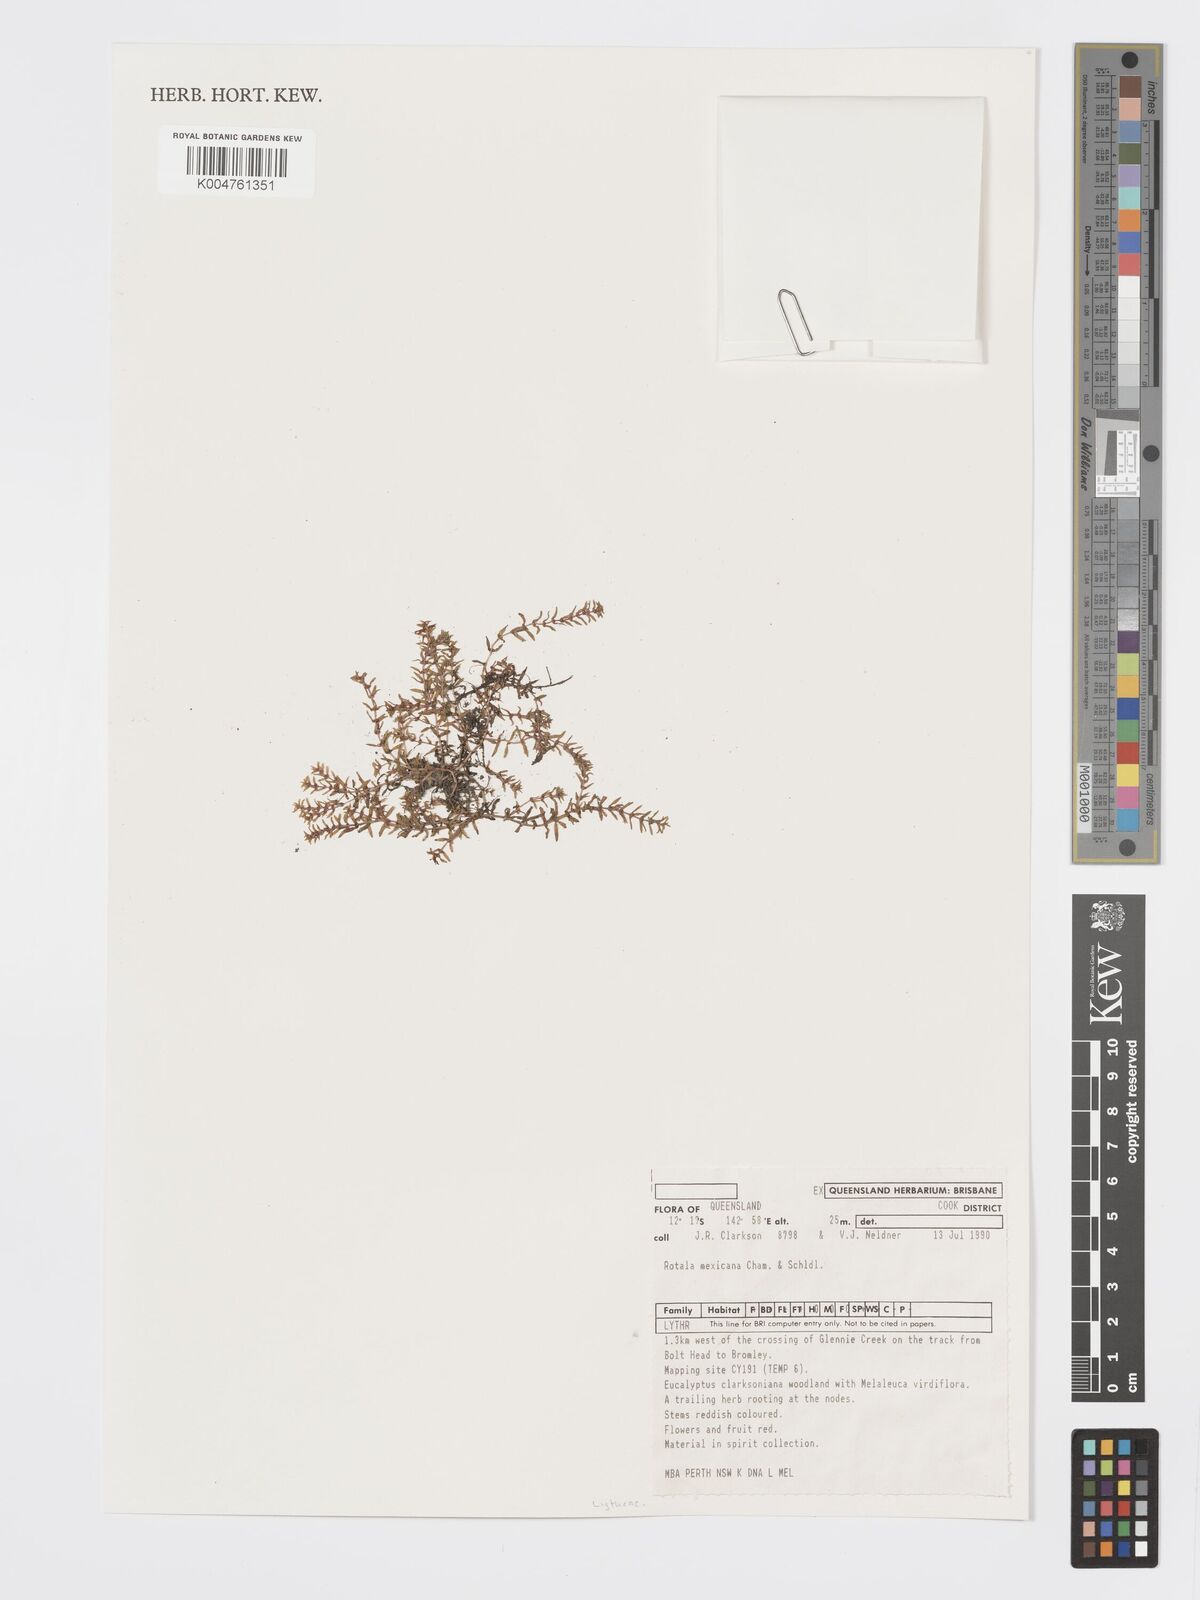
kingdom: Plantae
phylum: Tracheophyta
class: Magnoliopsida
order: Myrtales
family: Lythraceae
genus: Rotala
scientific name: Rotala mexicana
